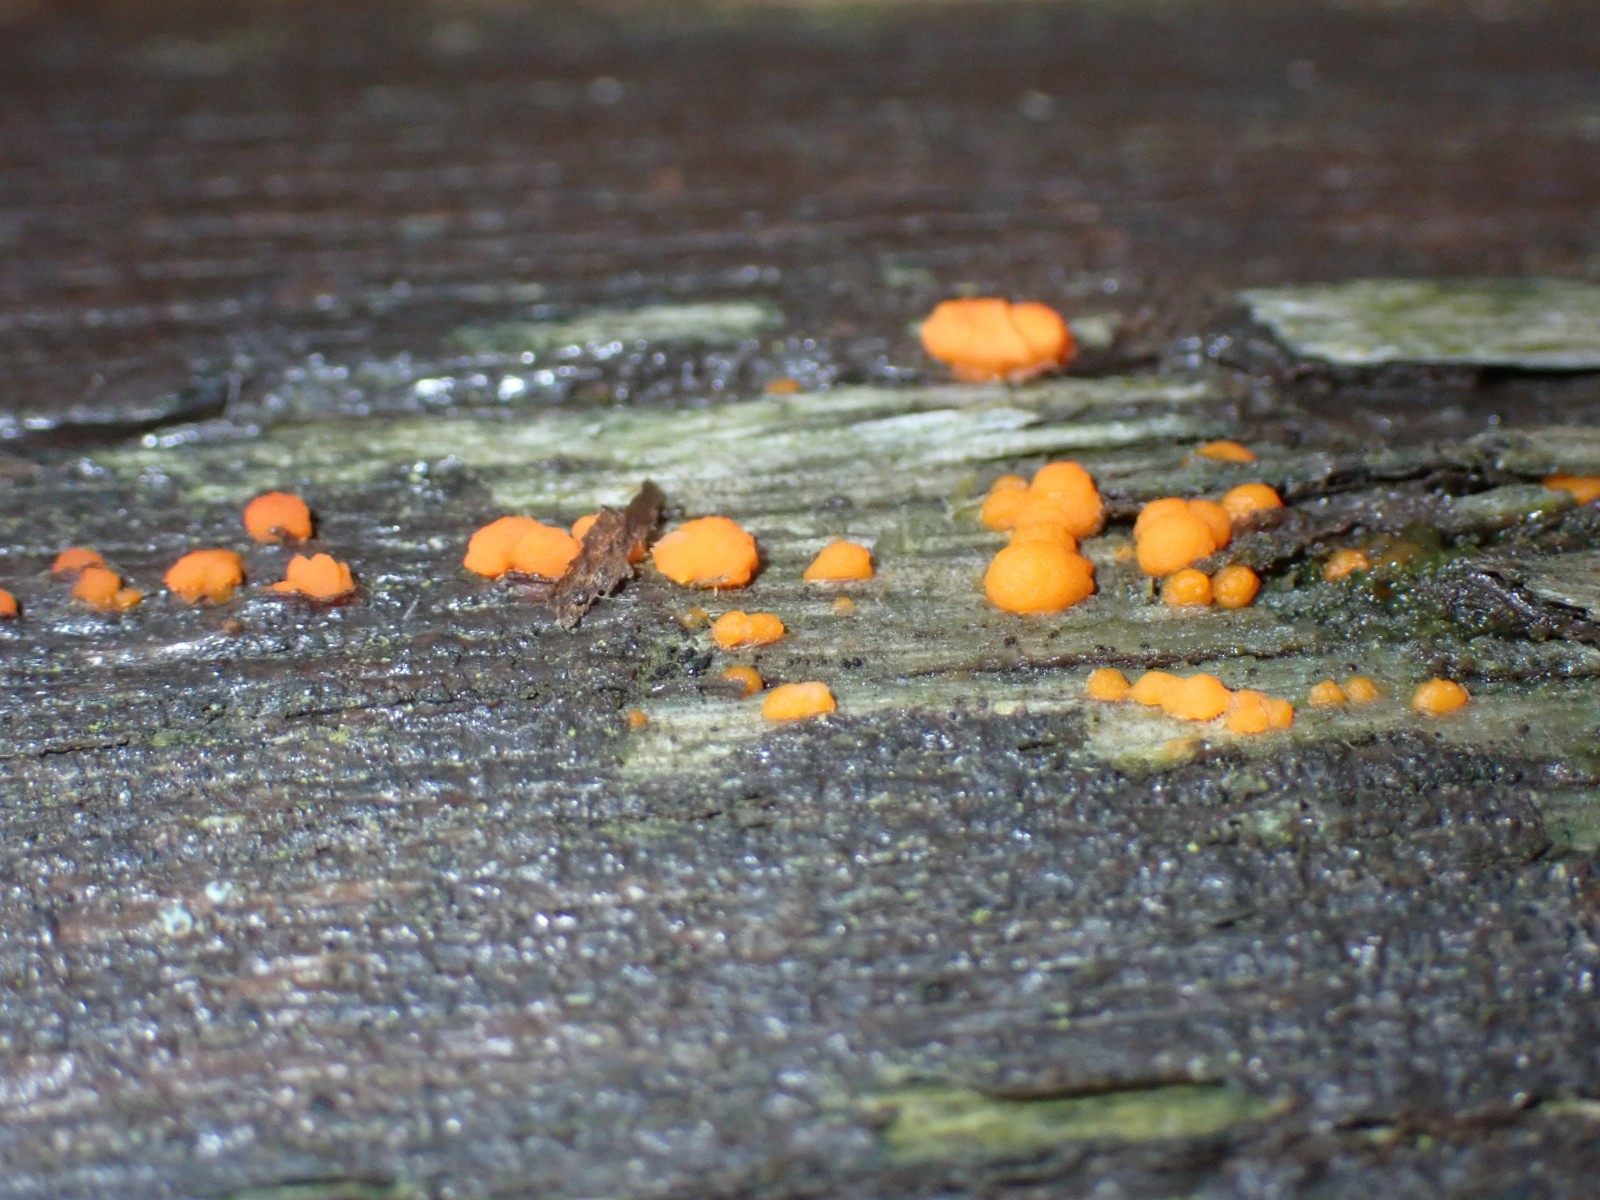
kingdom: Fungi
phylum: Basidiomycota
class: Dacrymycetes
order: Dacrymycetales
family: Dacrymycetaceae
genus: Dacrymyces
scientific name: Dacrymyces stillatus
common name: almindelig tåresvamp
